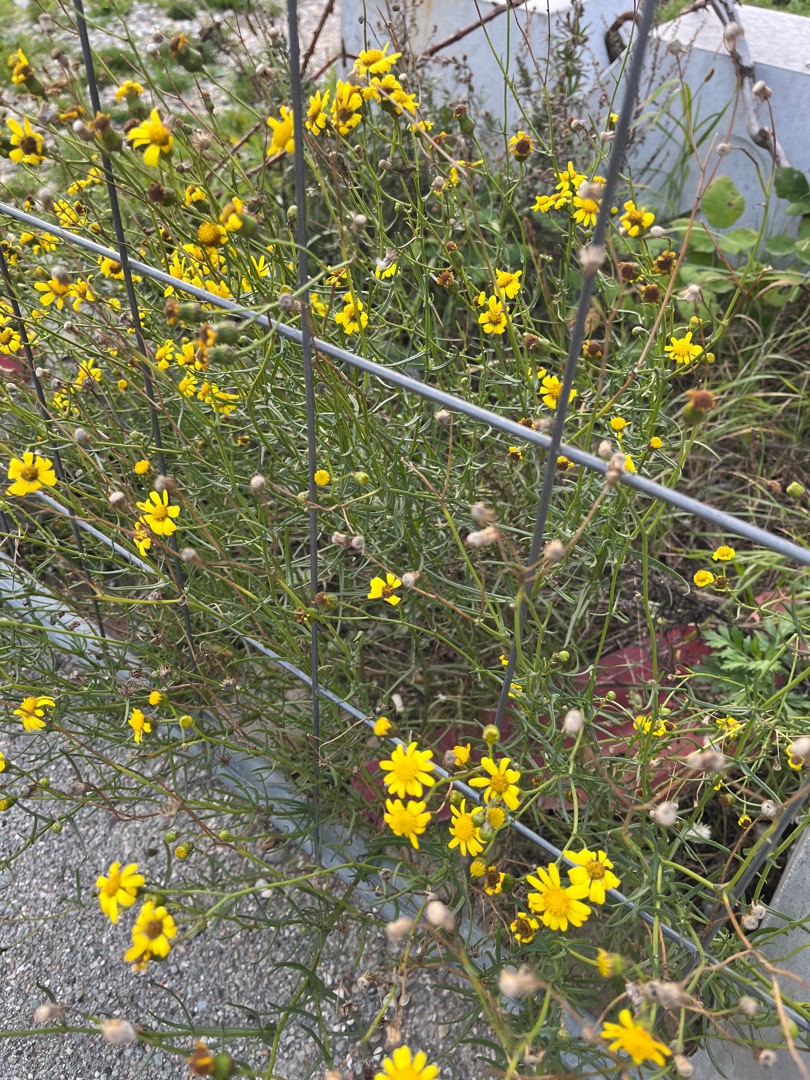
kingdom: Plantae
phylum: Tracheophyta
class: Magnoliopsida
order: Asterales
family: Asteraceae
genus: Senecio
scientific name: Senecio inaequidens
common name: Smalbladet brandbæger
